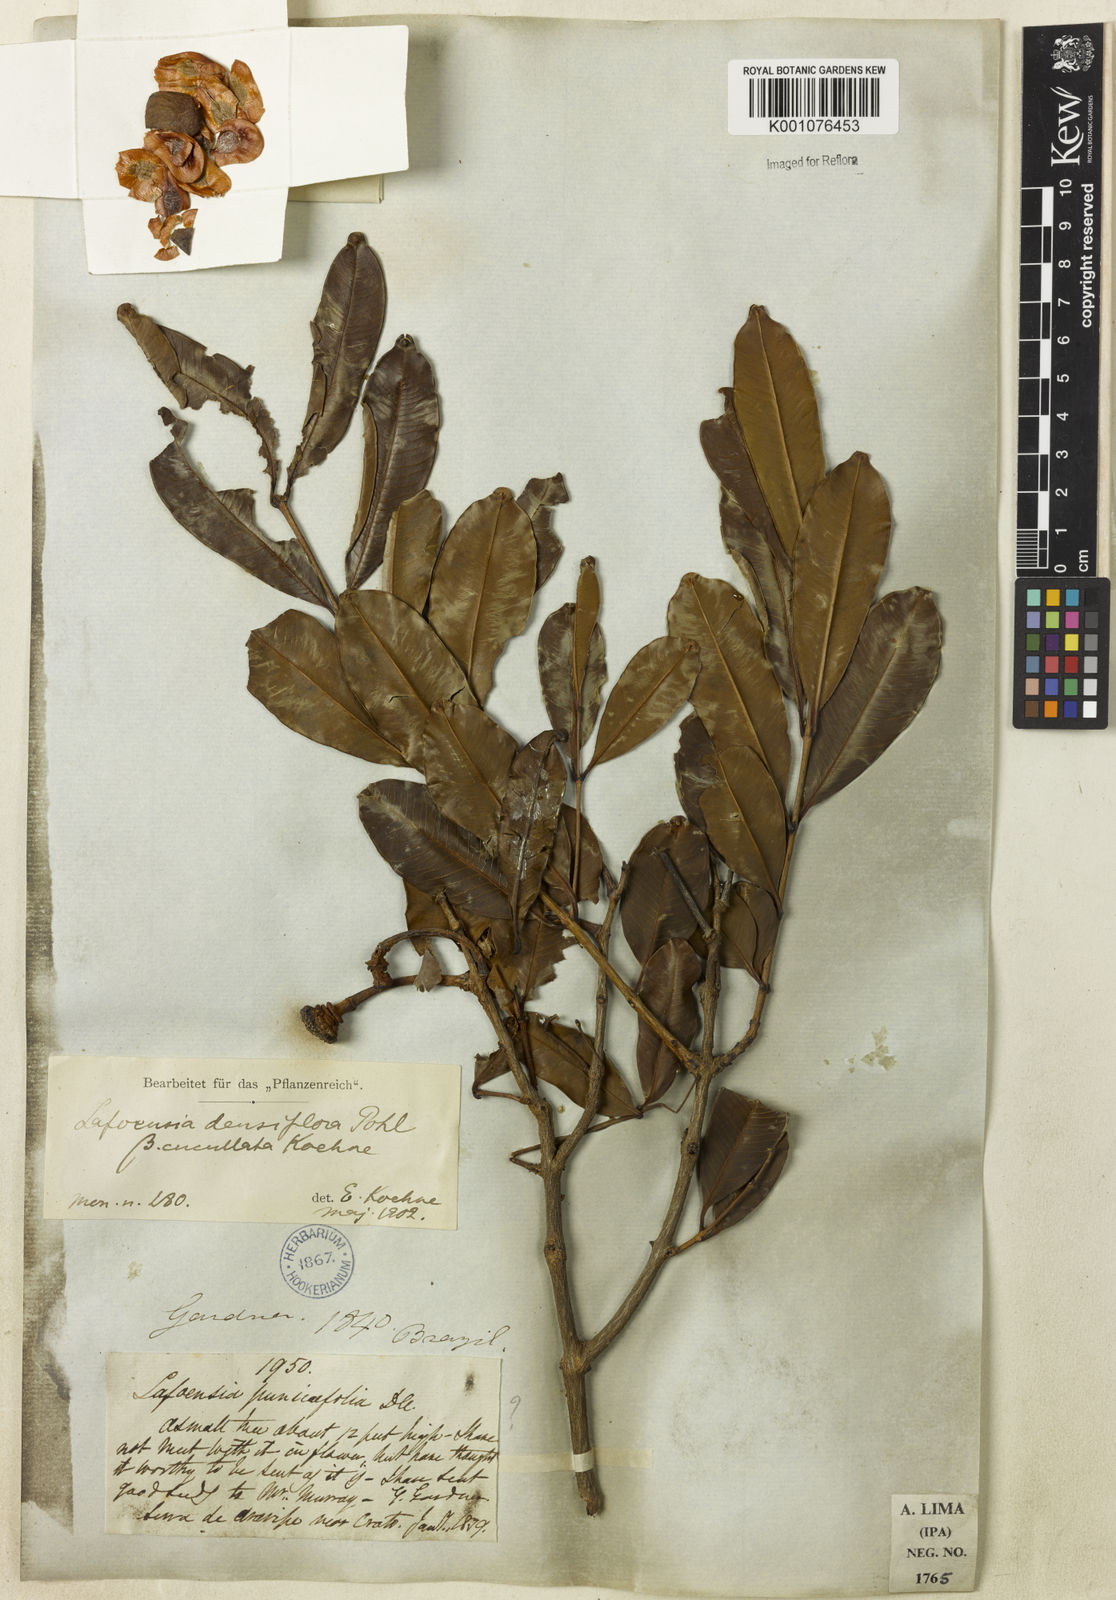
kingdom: Plantae
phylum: Tracheophyta
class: Magnoliopsida
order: Myrtales
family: Lythraceae
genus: Lafoensia
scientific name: Lafoensia vandelliana
